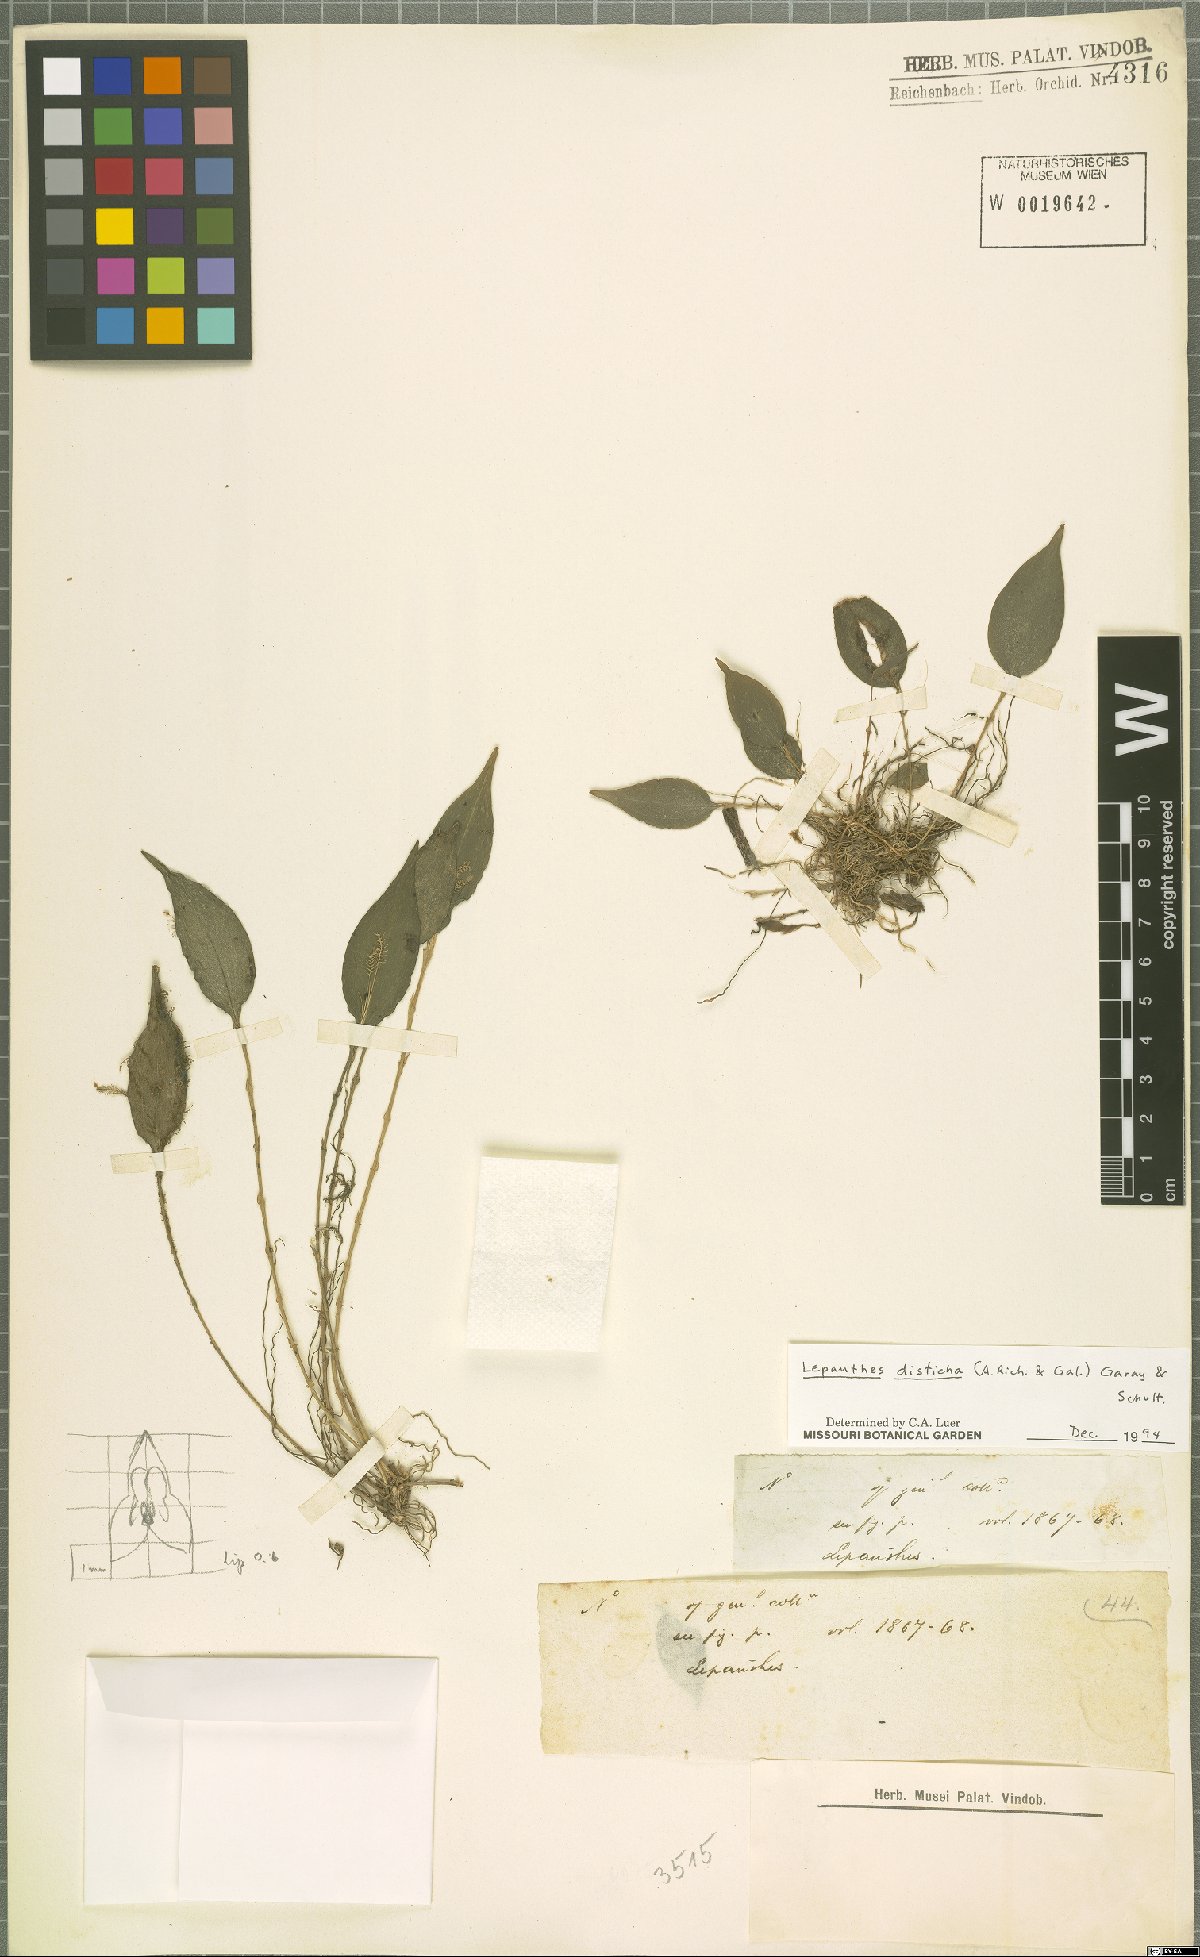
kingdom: Plantae
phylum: Tracheophyta
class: Liliopsida
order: Asparagales
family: Orchidaceae
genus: Lepanthes
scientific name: Lepanthes disticha
